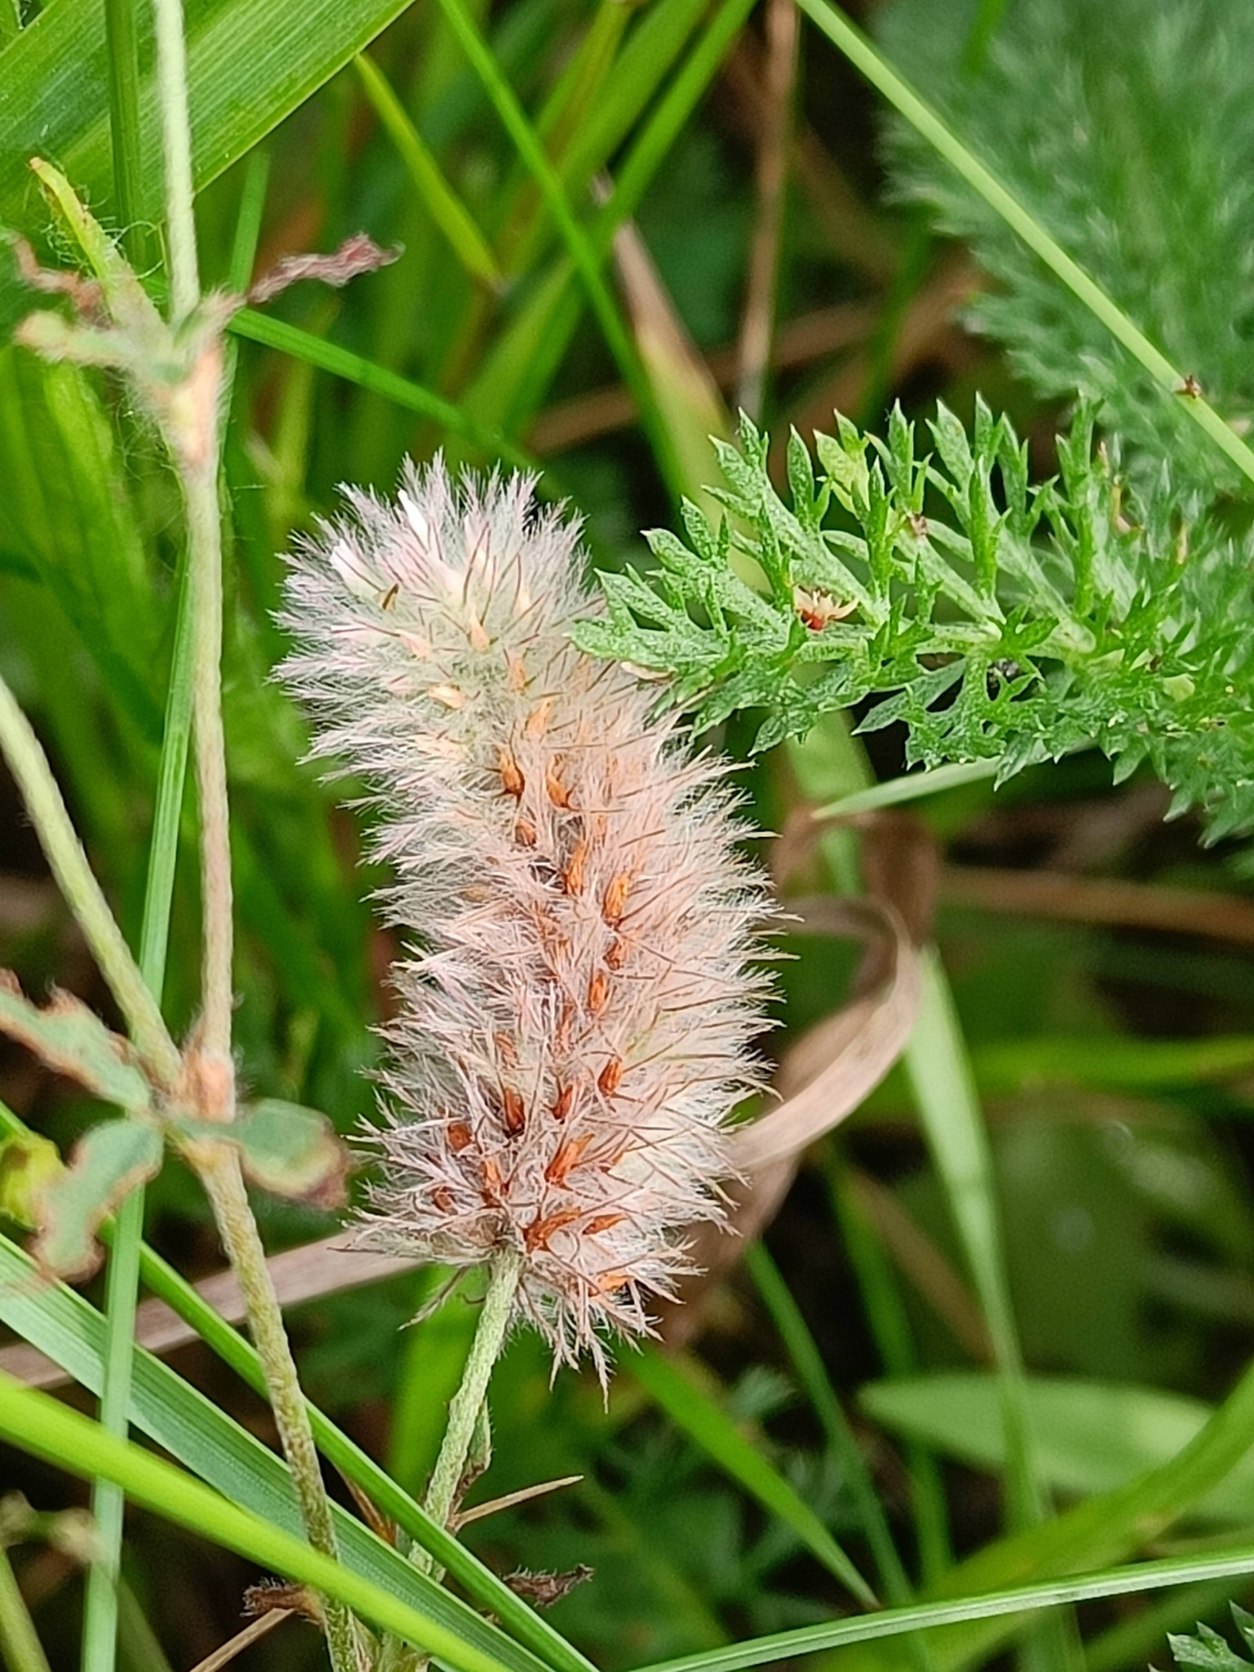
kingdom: Plantae
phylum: Tracheophyta
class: Magnoliopsida
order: Fabales
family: Fabaceae
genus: Trifolium
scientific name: Trifolium arvense
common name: Hare-kløver
